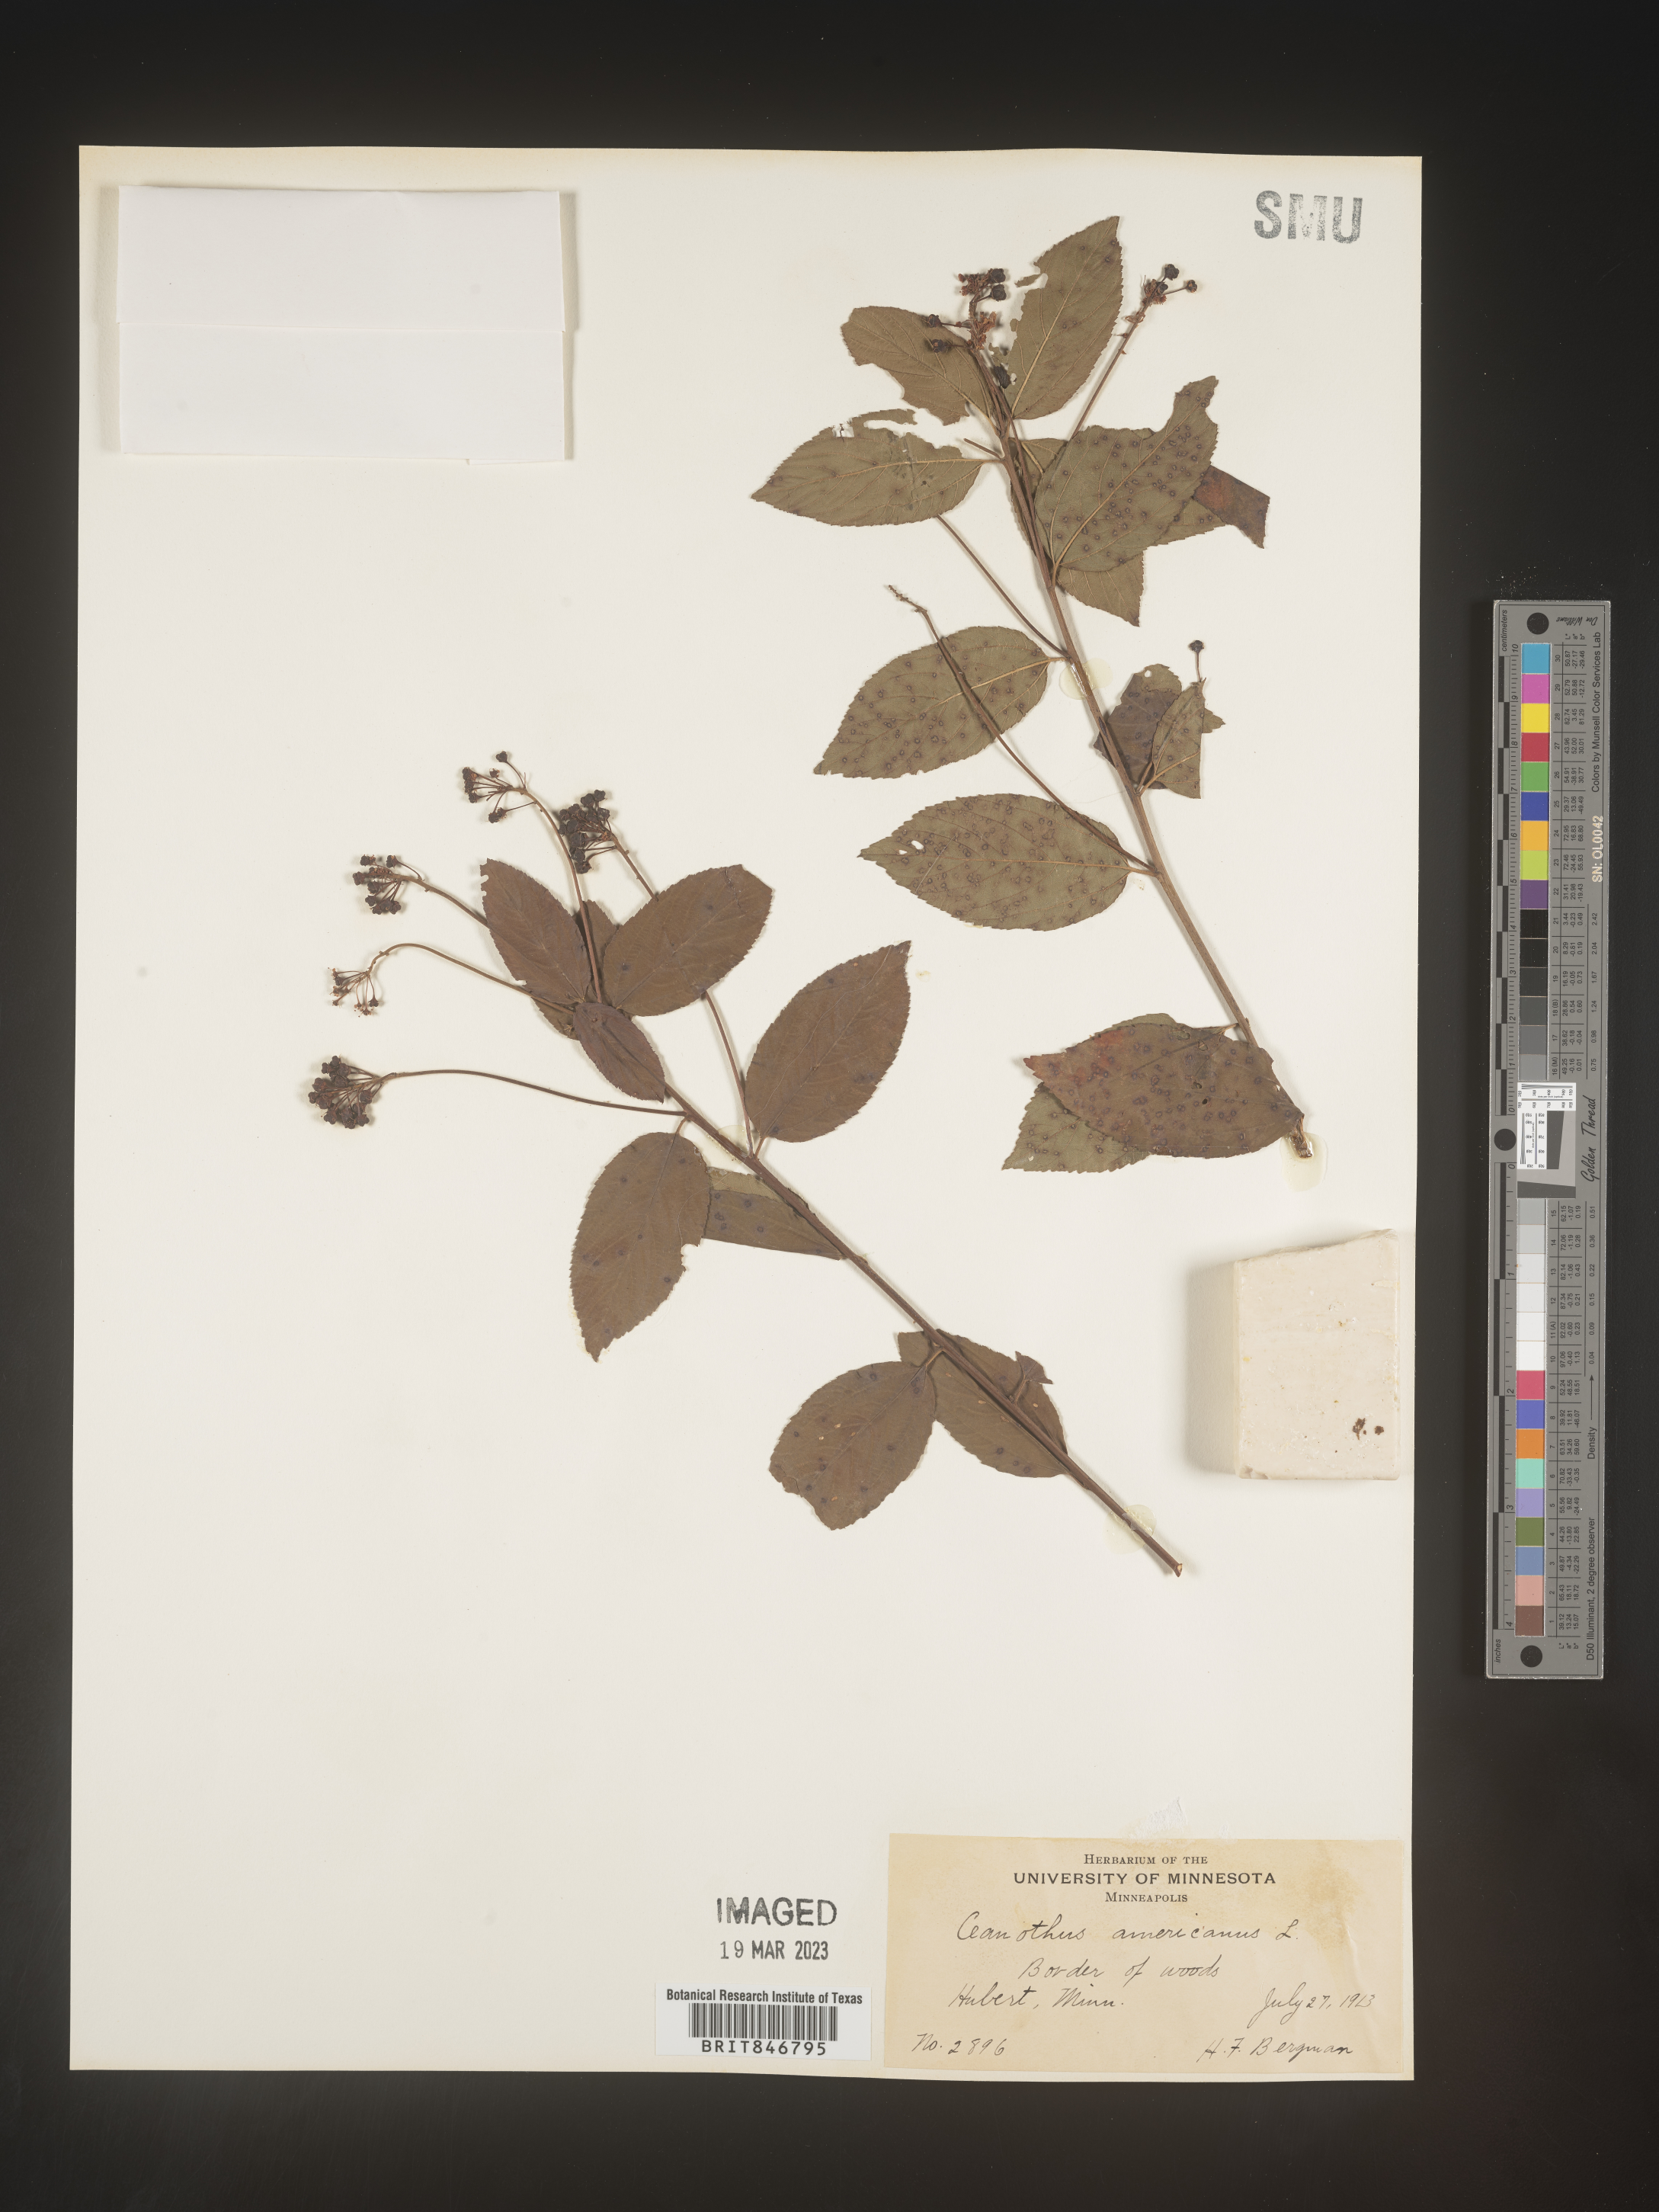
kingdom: Plantae
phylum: Tracheophyta
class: Magnoliopsida
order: Rosales
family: Rhamnaceae
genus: Ceanothus
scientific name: Ceanothus americanus
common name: Redroot
